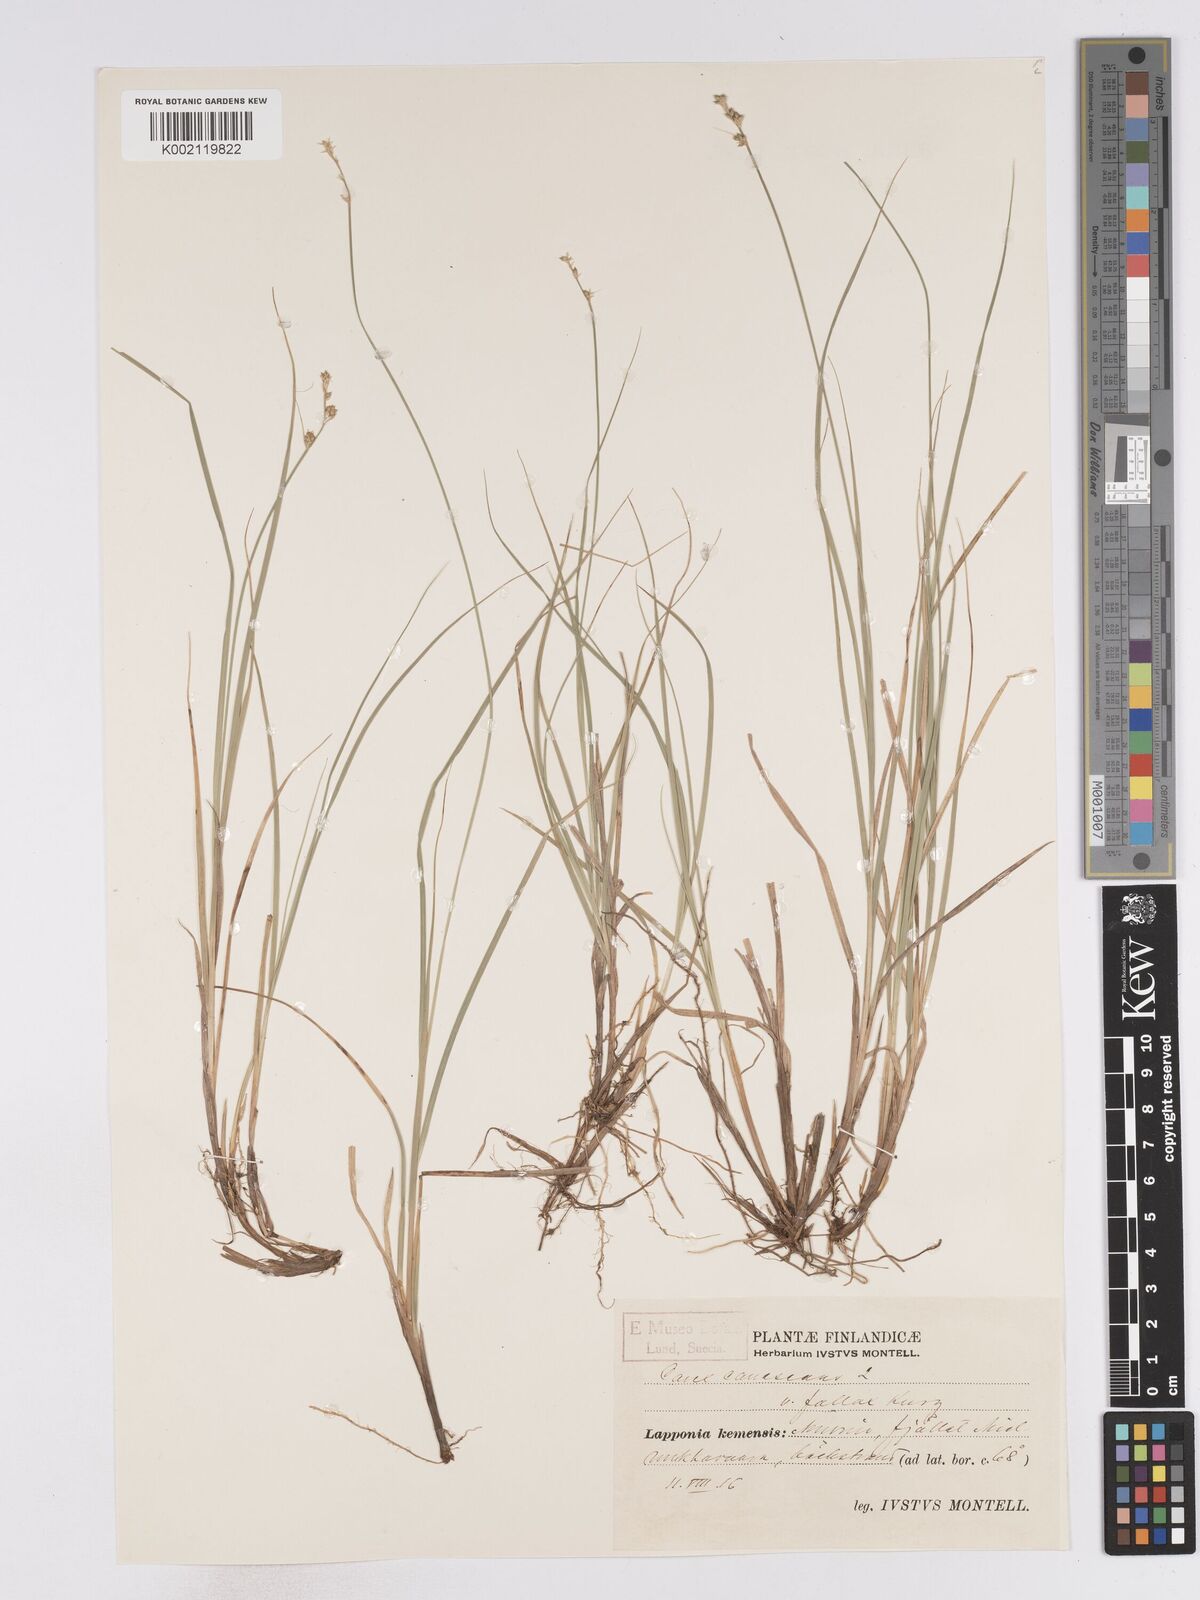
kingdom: Plantae
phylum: Tracheophyta
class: Liliopsida
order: Poales
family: Cyperaceae
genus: Carex
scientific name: Carex curta
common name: White sedge
